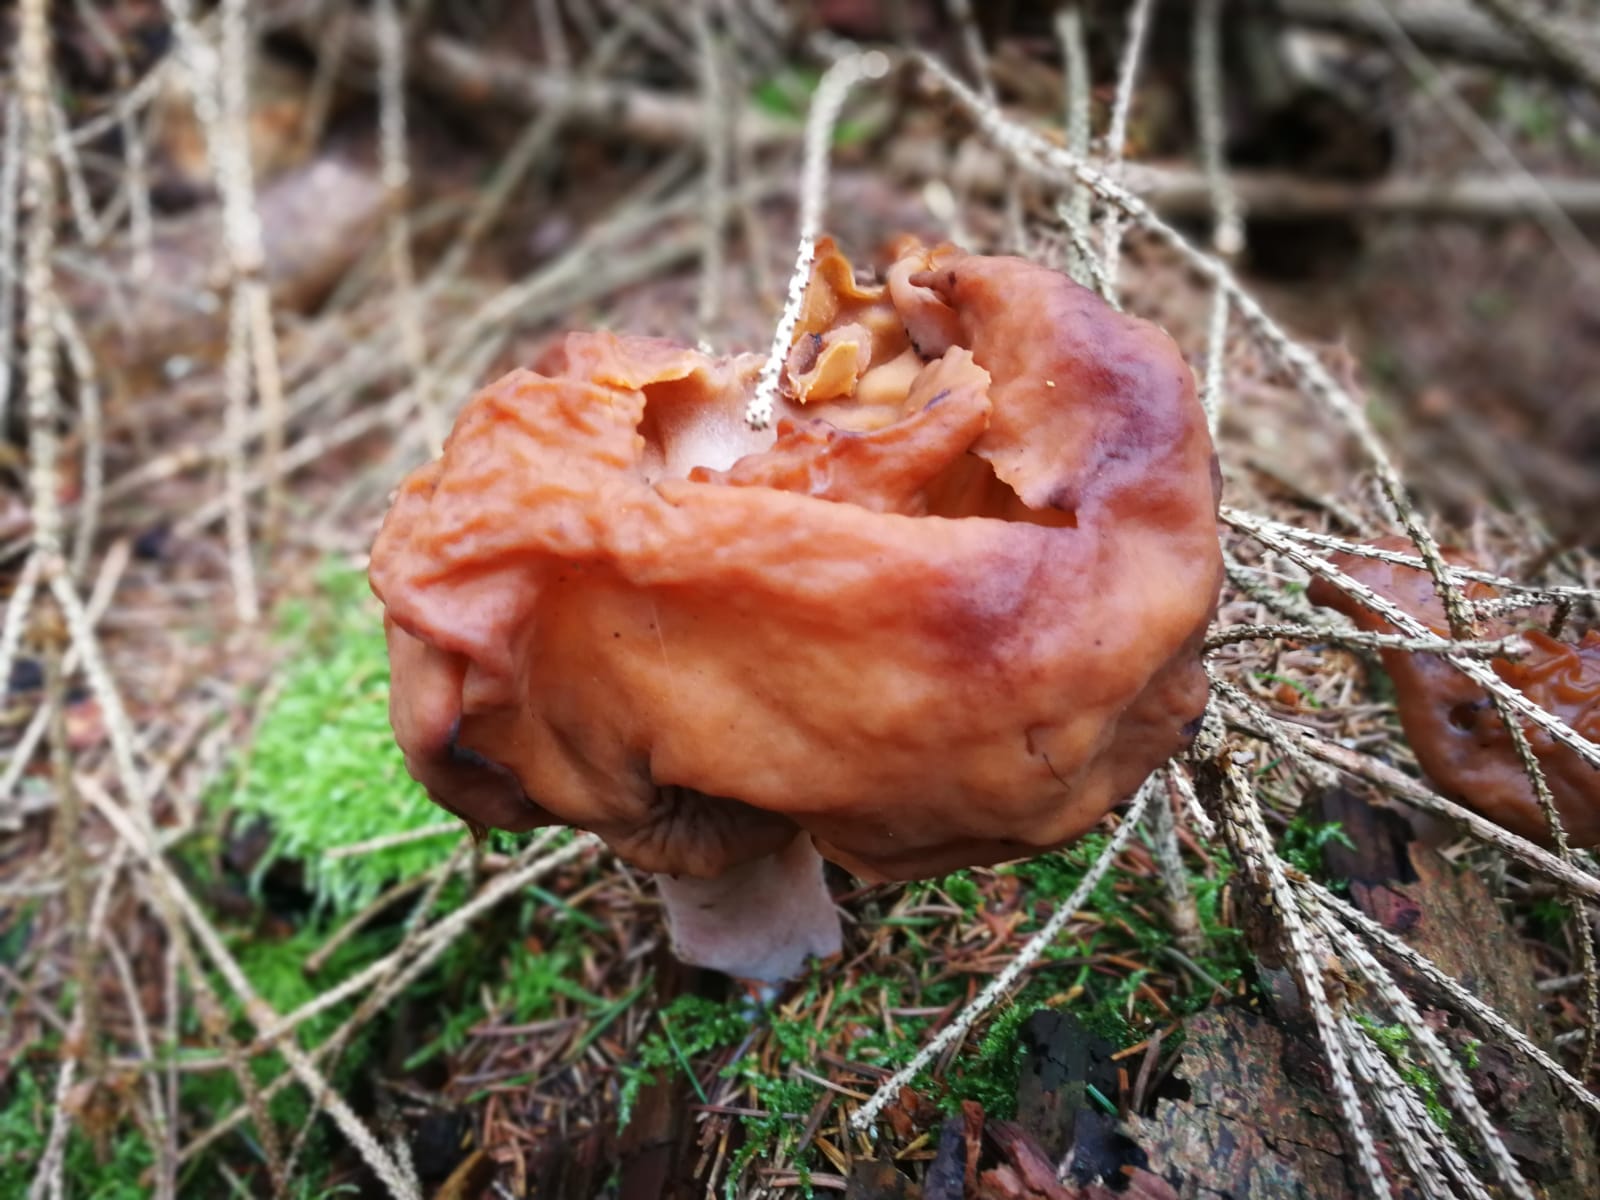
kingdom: Fungi
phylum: Ascomycota
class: Pezizomycetes
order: Pezizales
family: Discinaceae
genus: Gyromitra
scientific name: Gyromitra infula
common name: bispehue-stenmorkel
